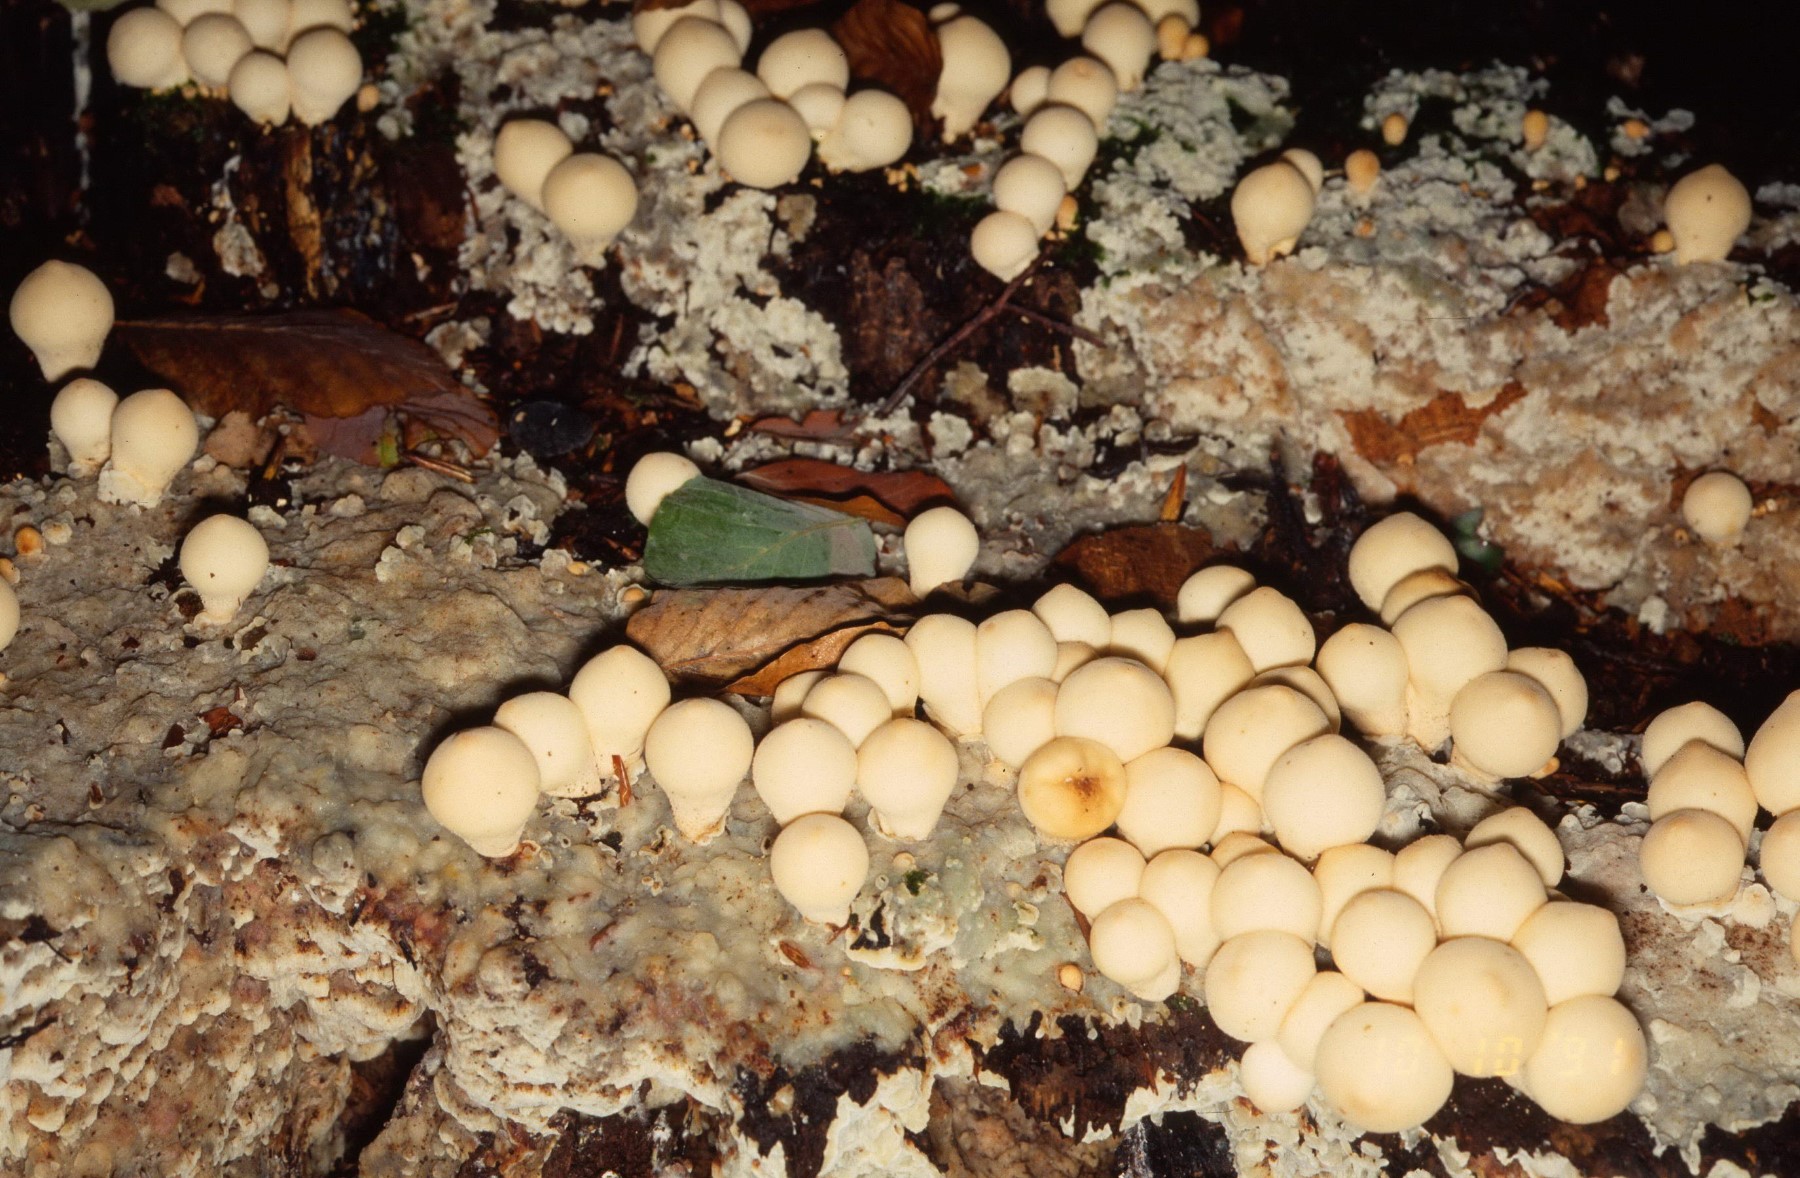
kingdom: Fungi
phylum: Basidiomycota
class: Agaricomycetes
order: Polyporales
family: Meruliaceae
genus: Physisporinus
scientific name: Physisporinus vitreus
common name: mastesvamp
